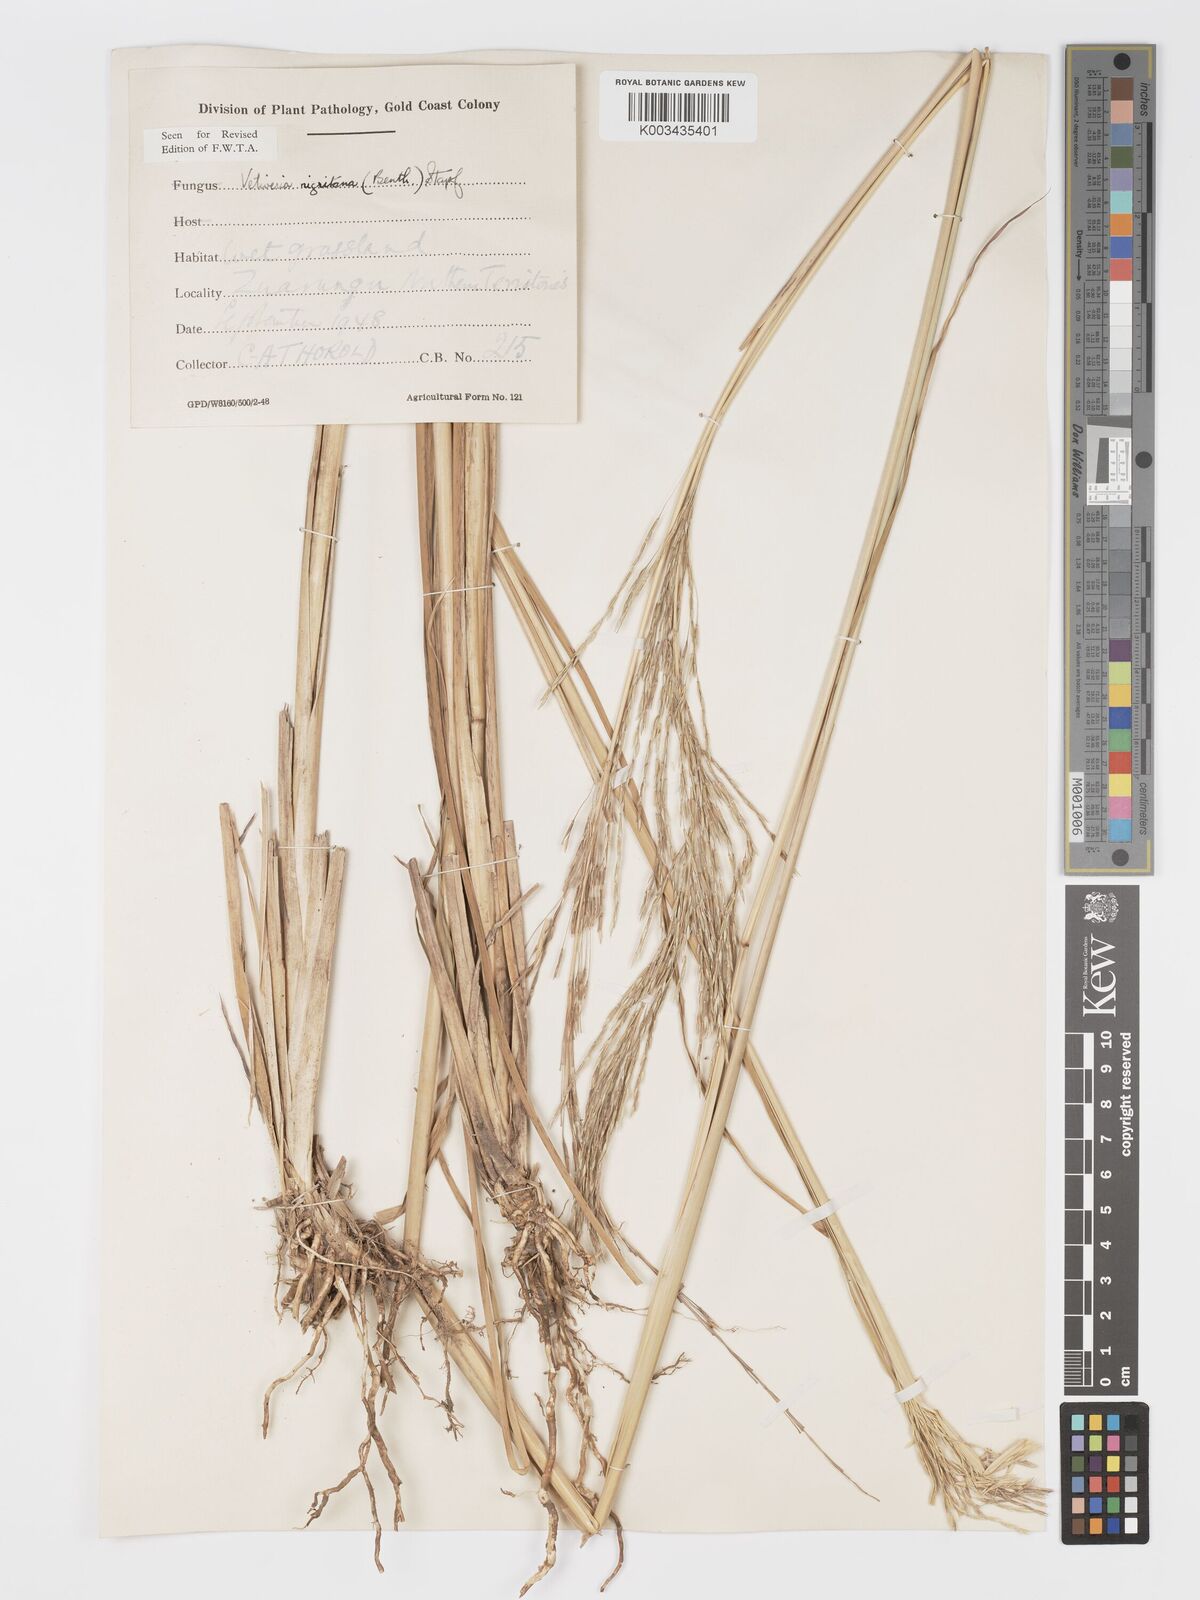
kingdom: Plantae
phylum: Tracheophyta
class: Liliopsida
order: Poales
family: Poaceae
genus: Chrysopogon
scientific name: Chrysopogon nigritanus
